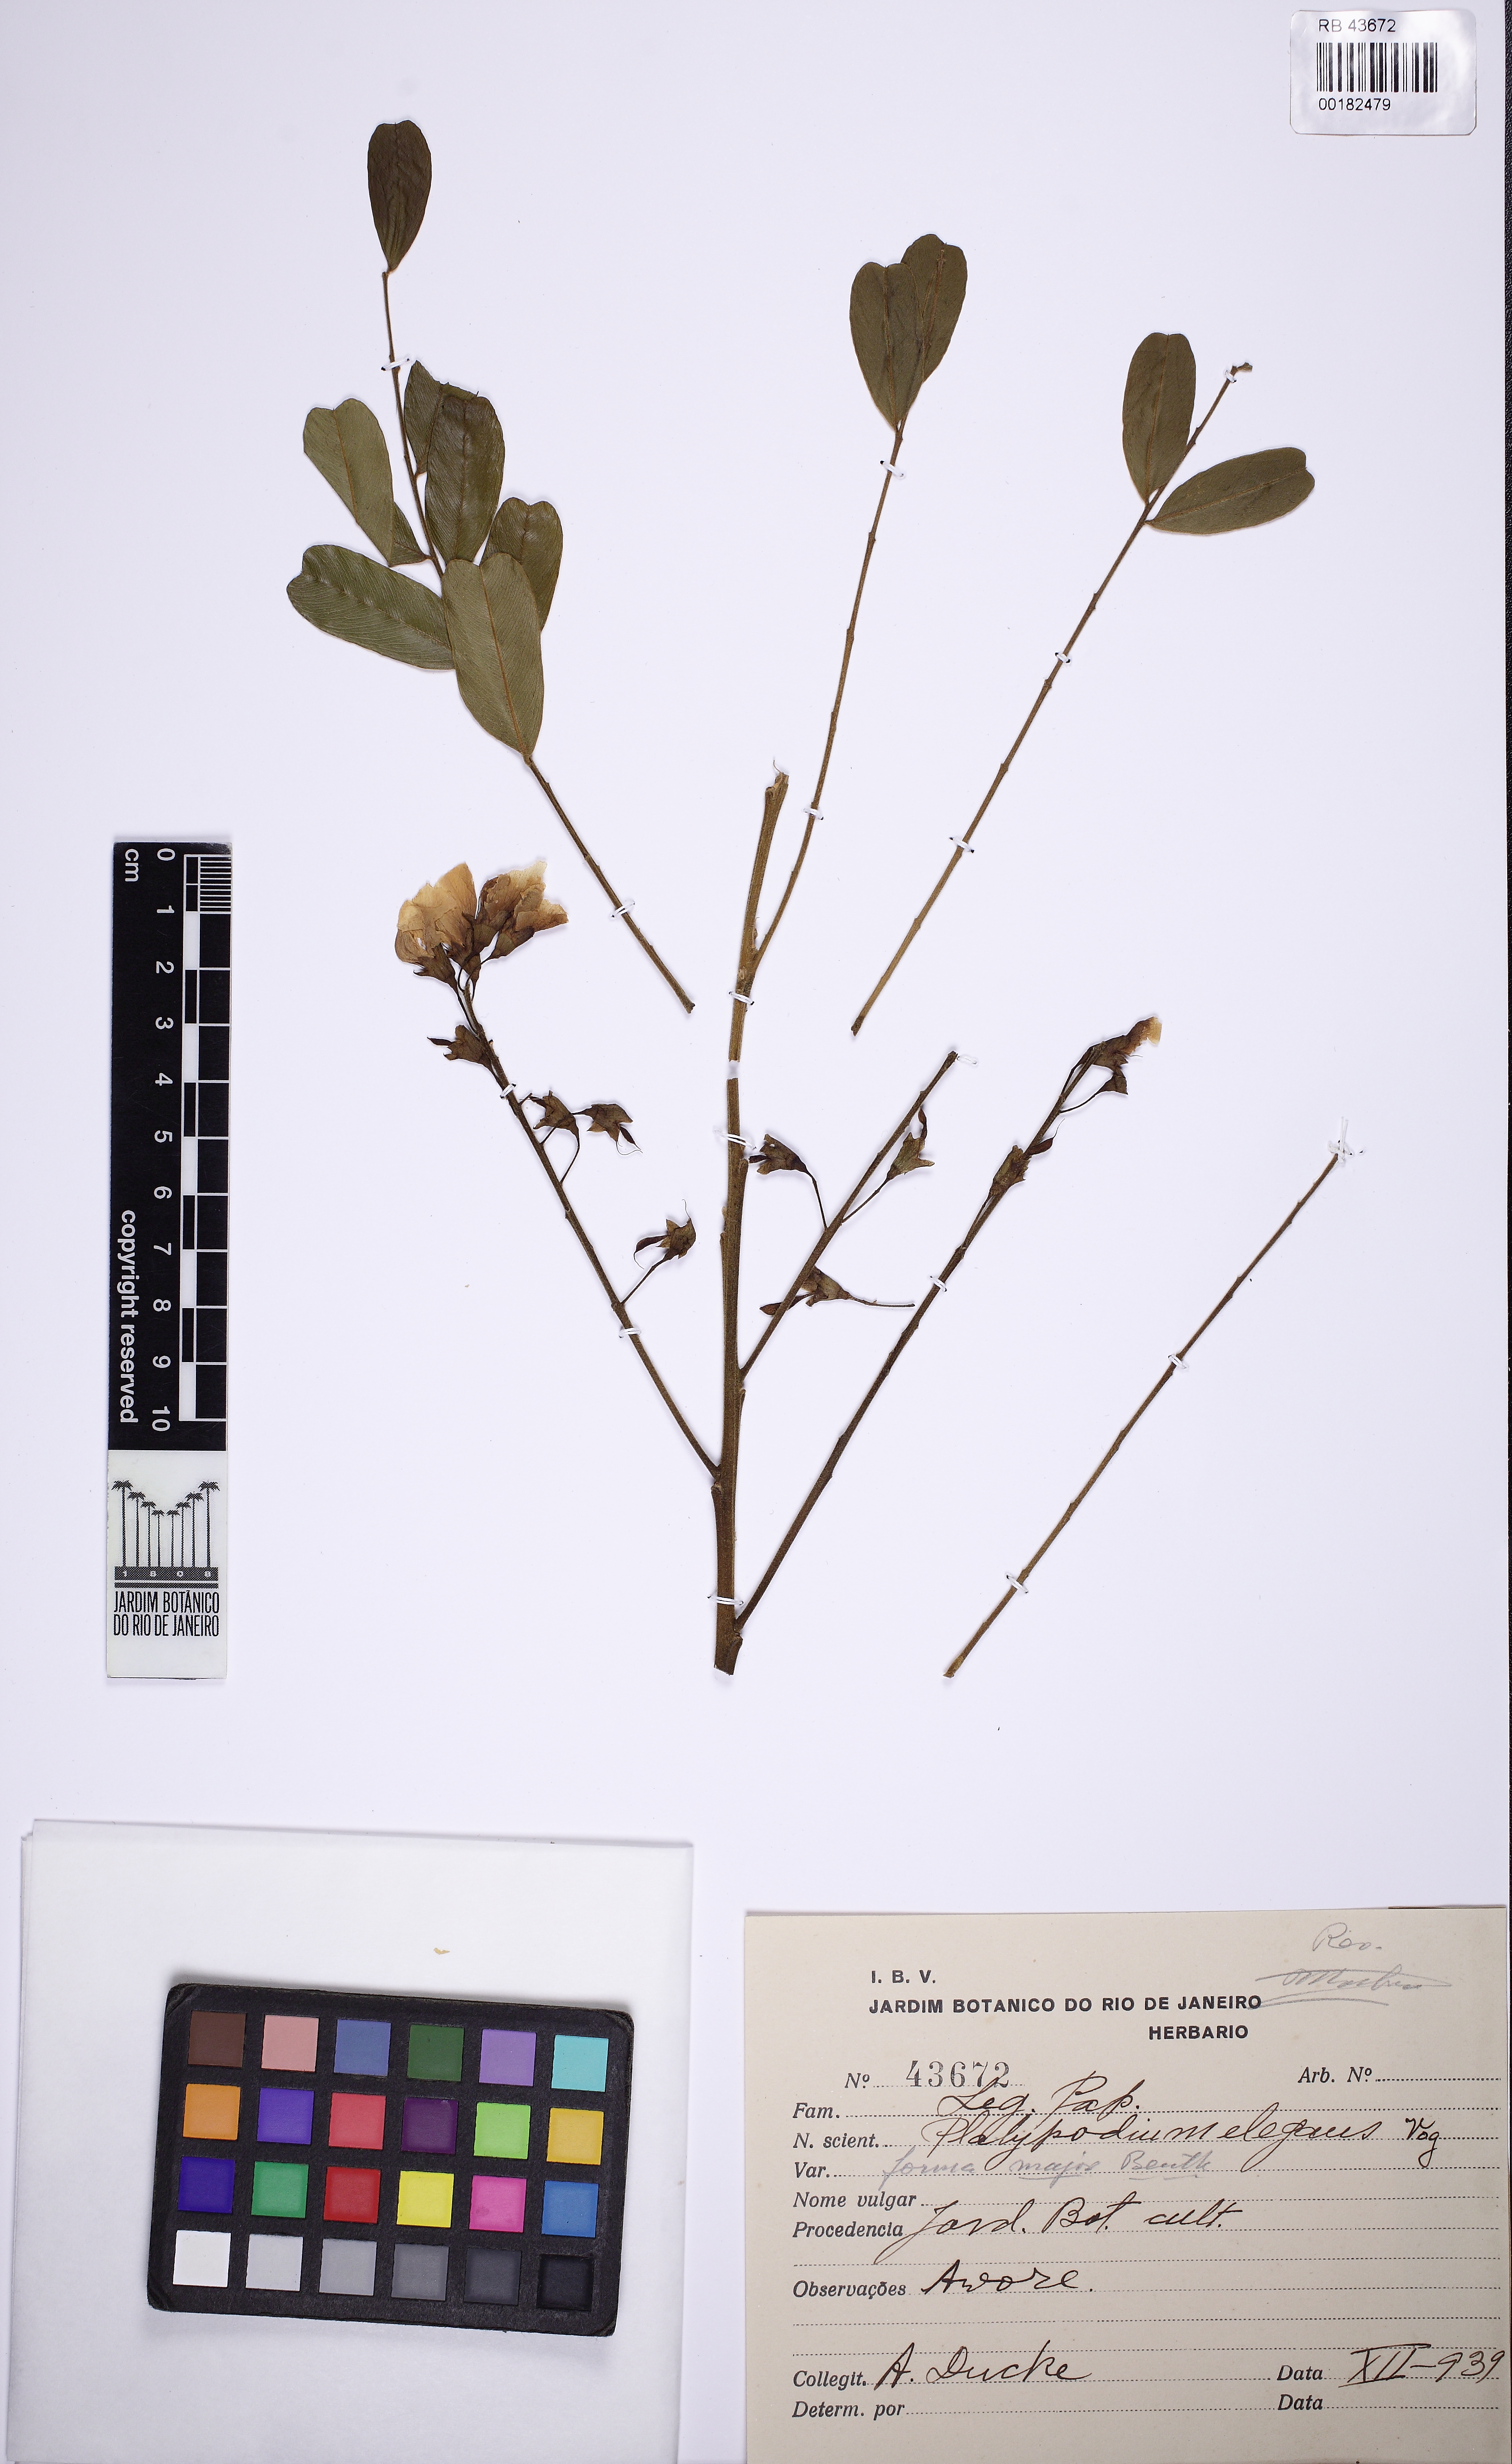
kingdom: Plantae
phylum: Tracheophyta
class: Magnoliopsida
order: Fabales
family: Fabaceae
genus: Platypodium
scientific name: Platypodium elegans
